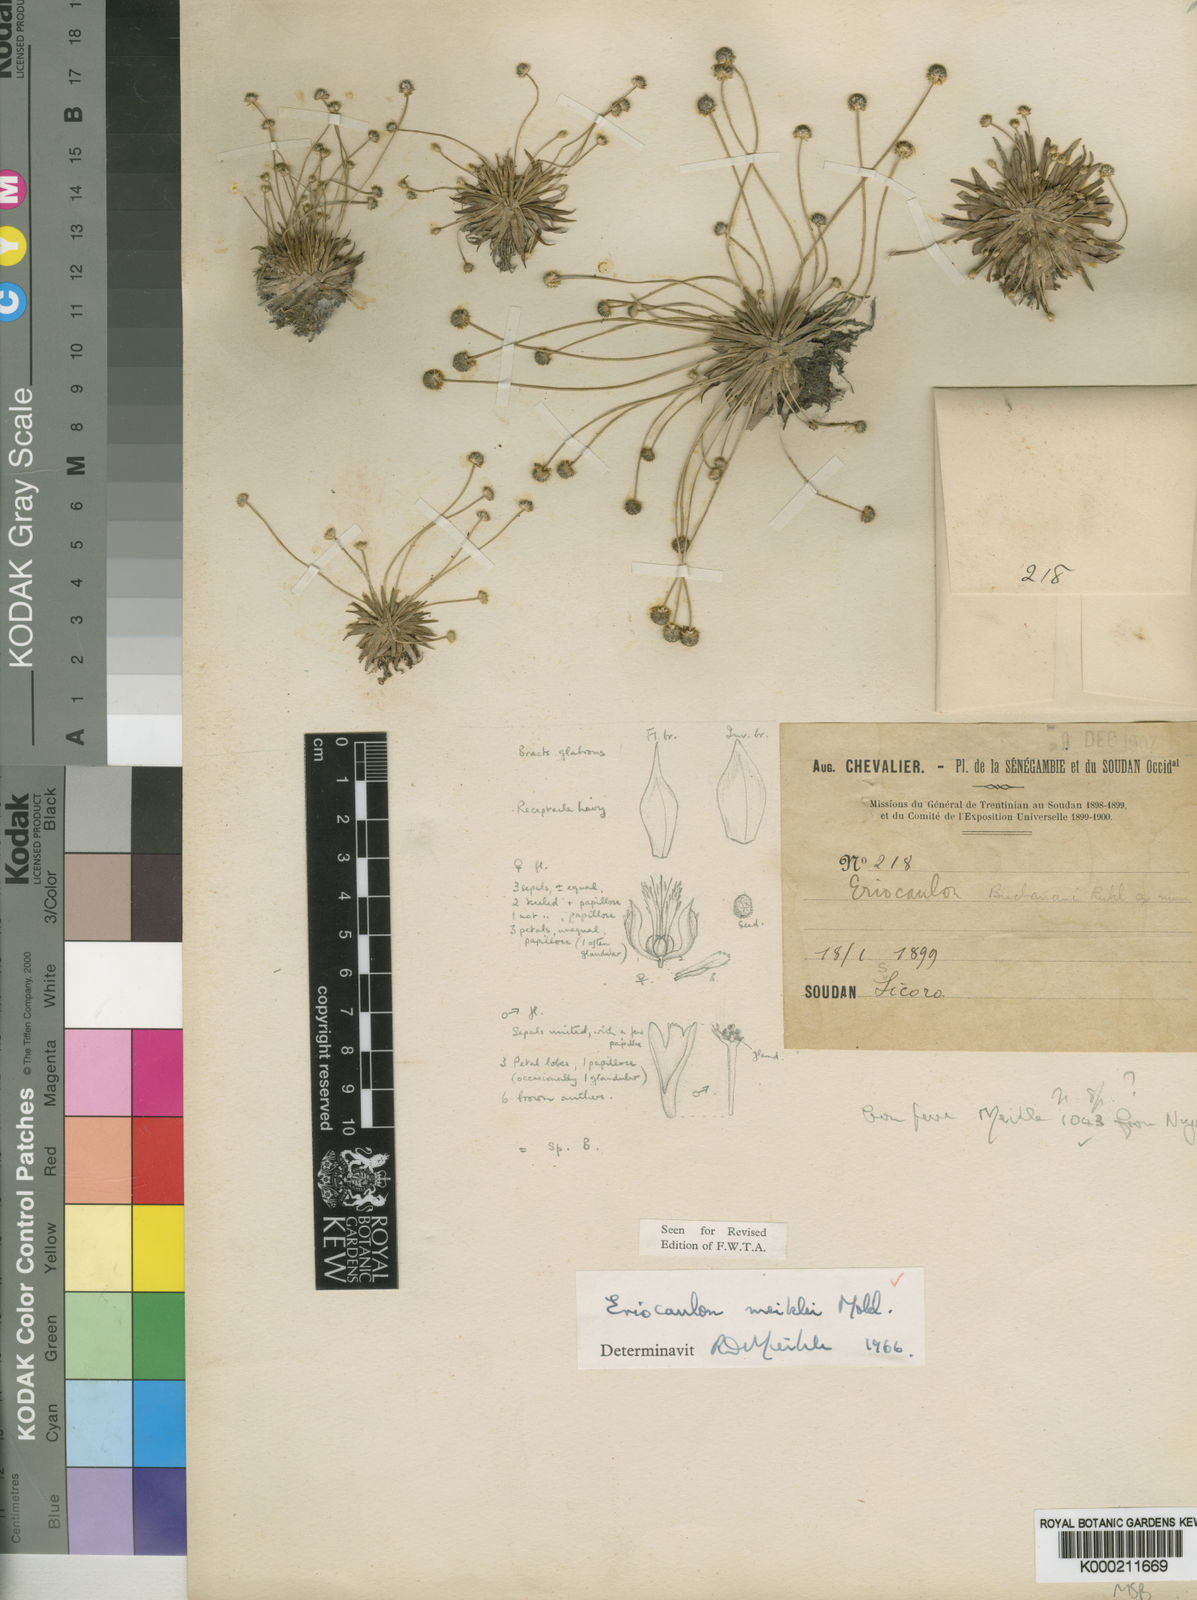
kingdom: Plantae
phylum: Tracheophyta
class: Liliopsida
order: Poales
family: Eriocaulaceae
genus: Eriocaulon
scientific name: Eriocaulon meiklei
